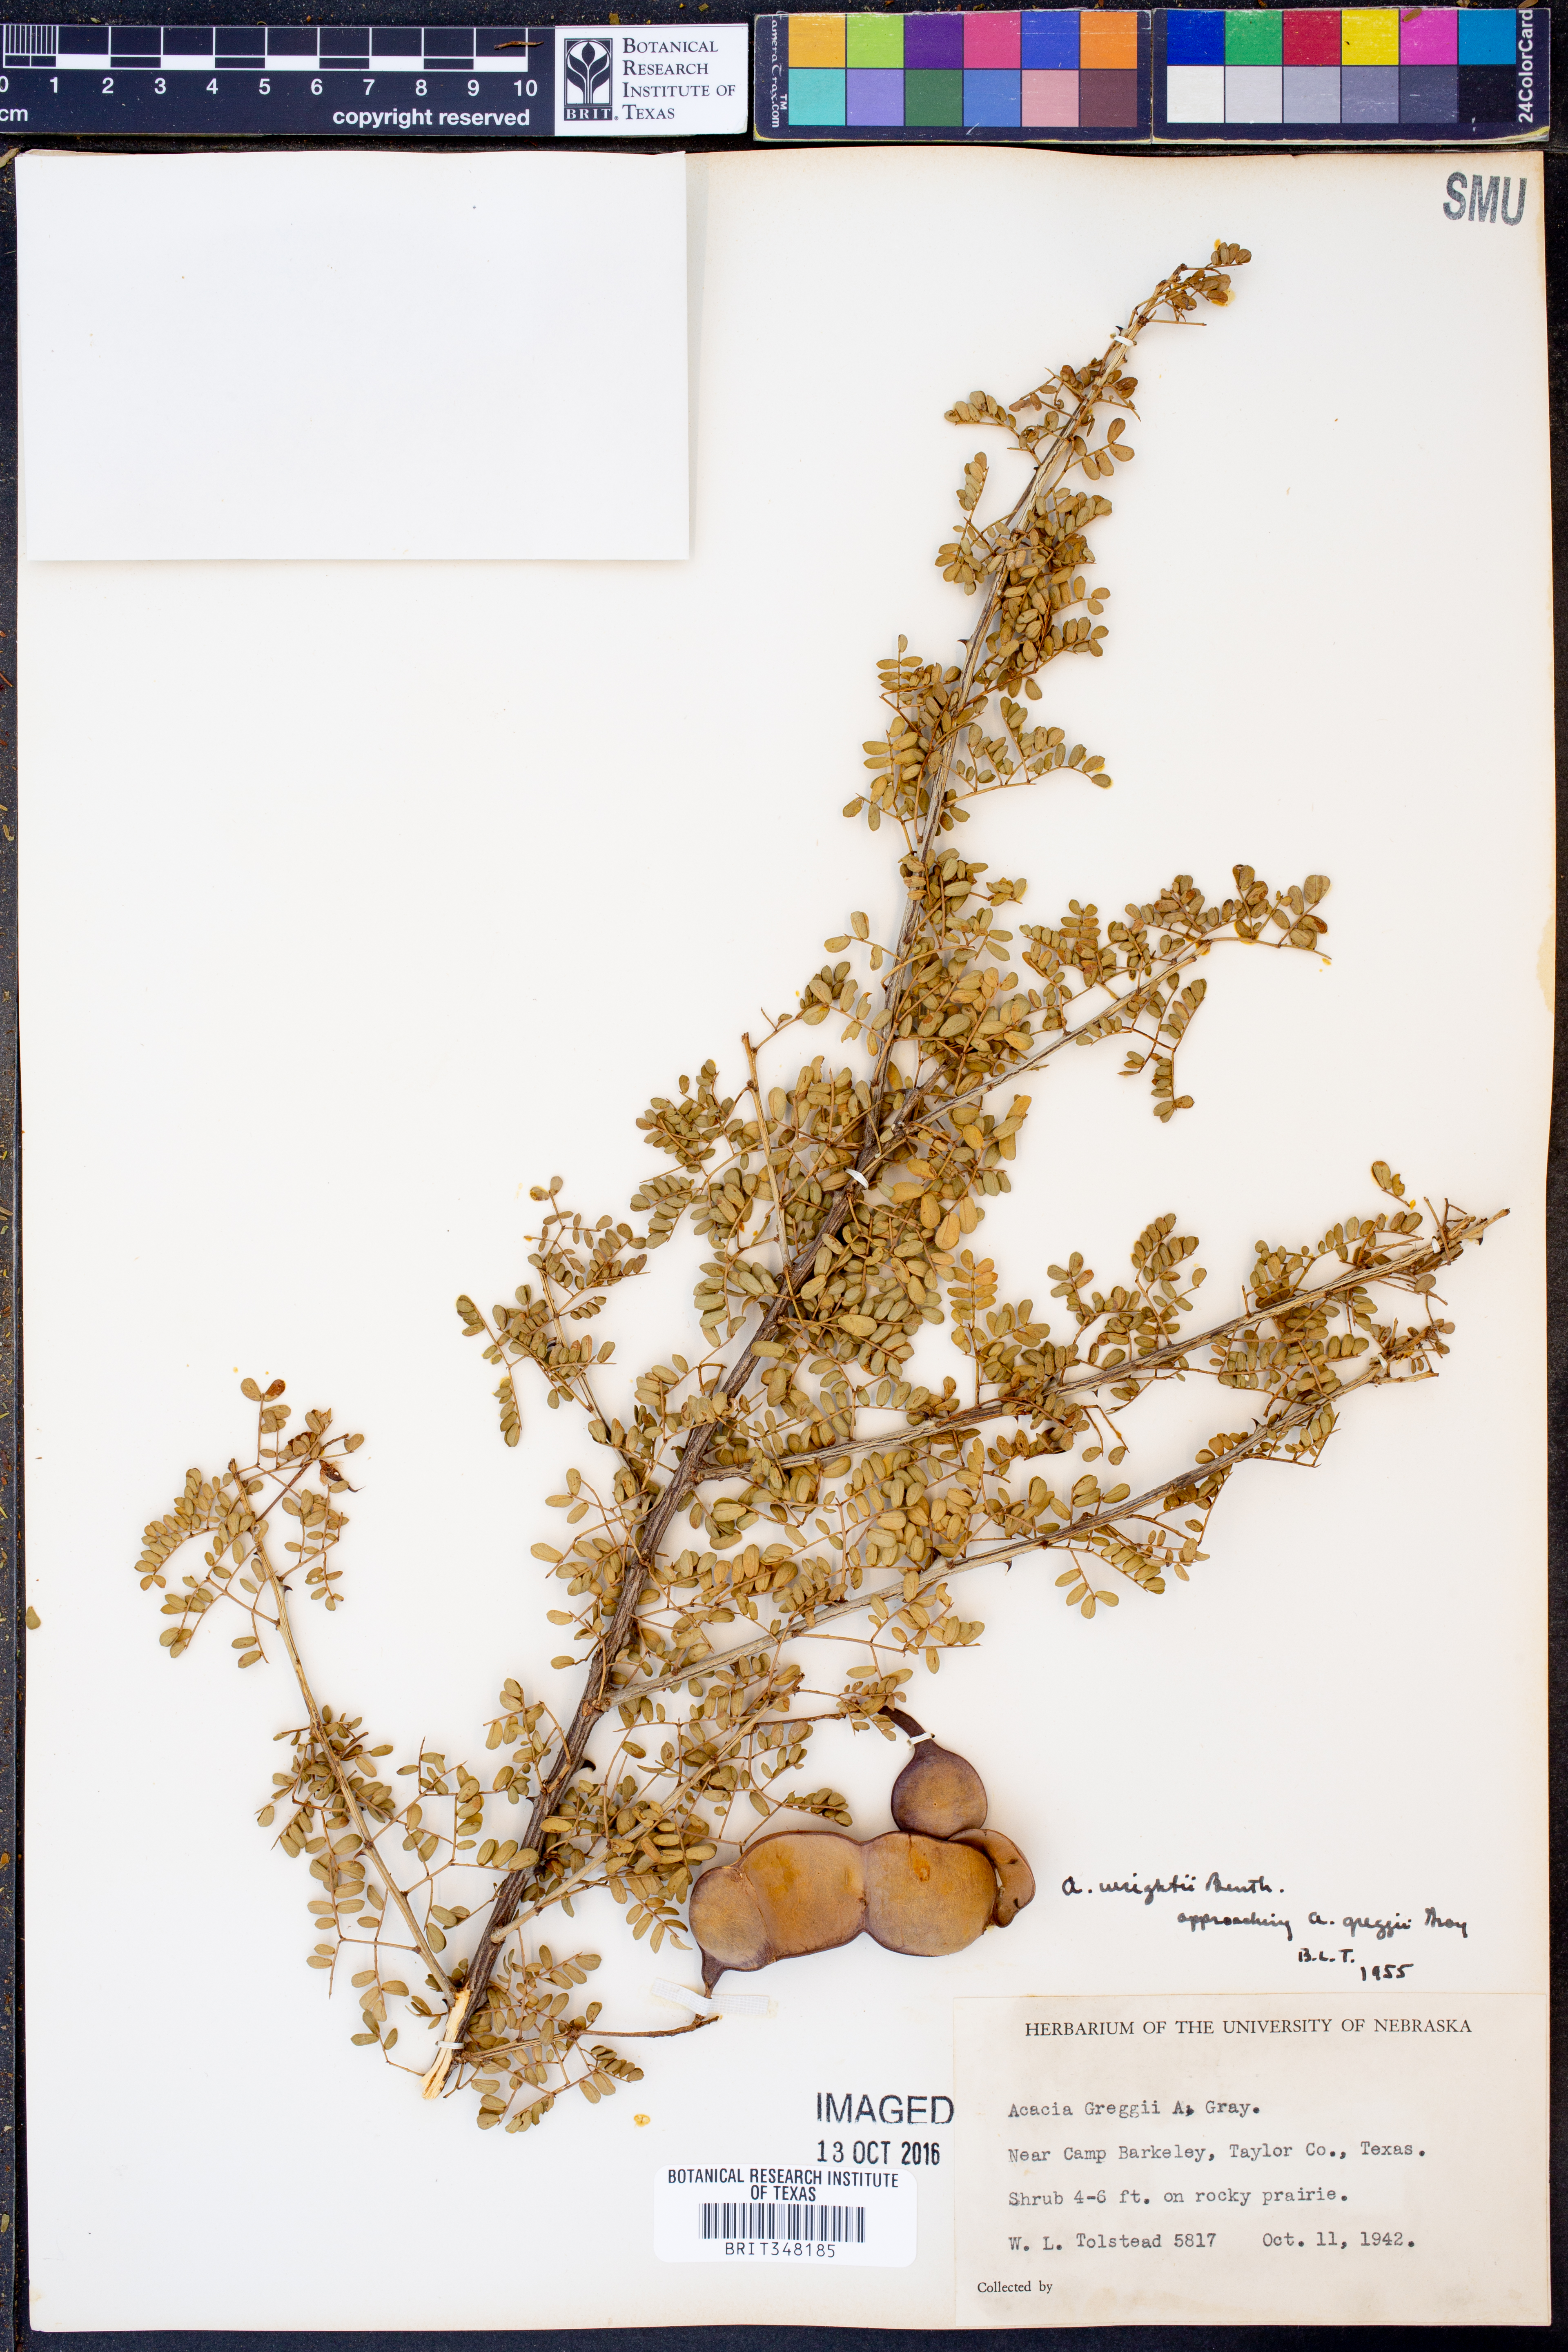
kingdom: Plantae
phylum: Tracheophyta
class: Magnoliopsida
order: Fabales
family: Fabaceae
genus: Senegalia
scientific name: Senegalia wrightii
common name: Texas cat's-claw
